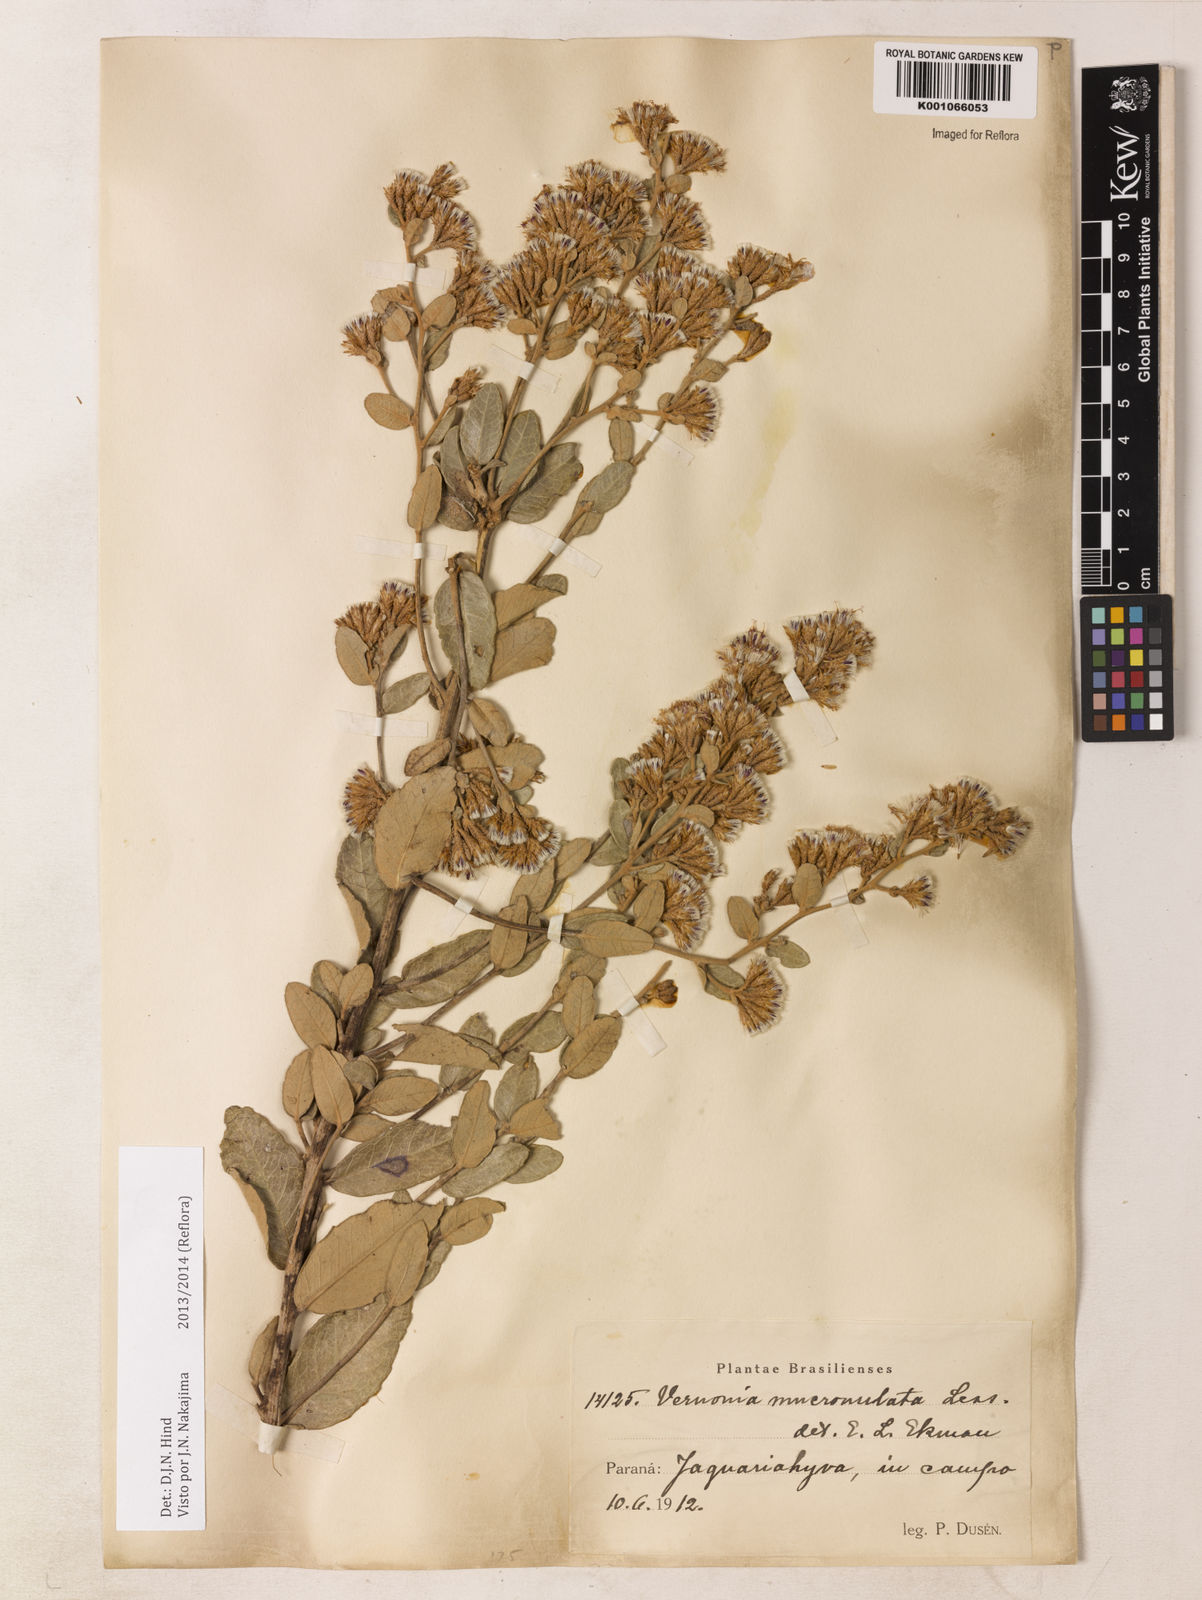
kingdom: Plantae
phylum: Tracheophyta
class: Magnoliopsida
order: Asterales
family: Asteraceae
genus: Vernonanthura
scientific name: Vernonanthura mucronulata
